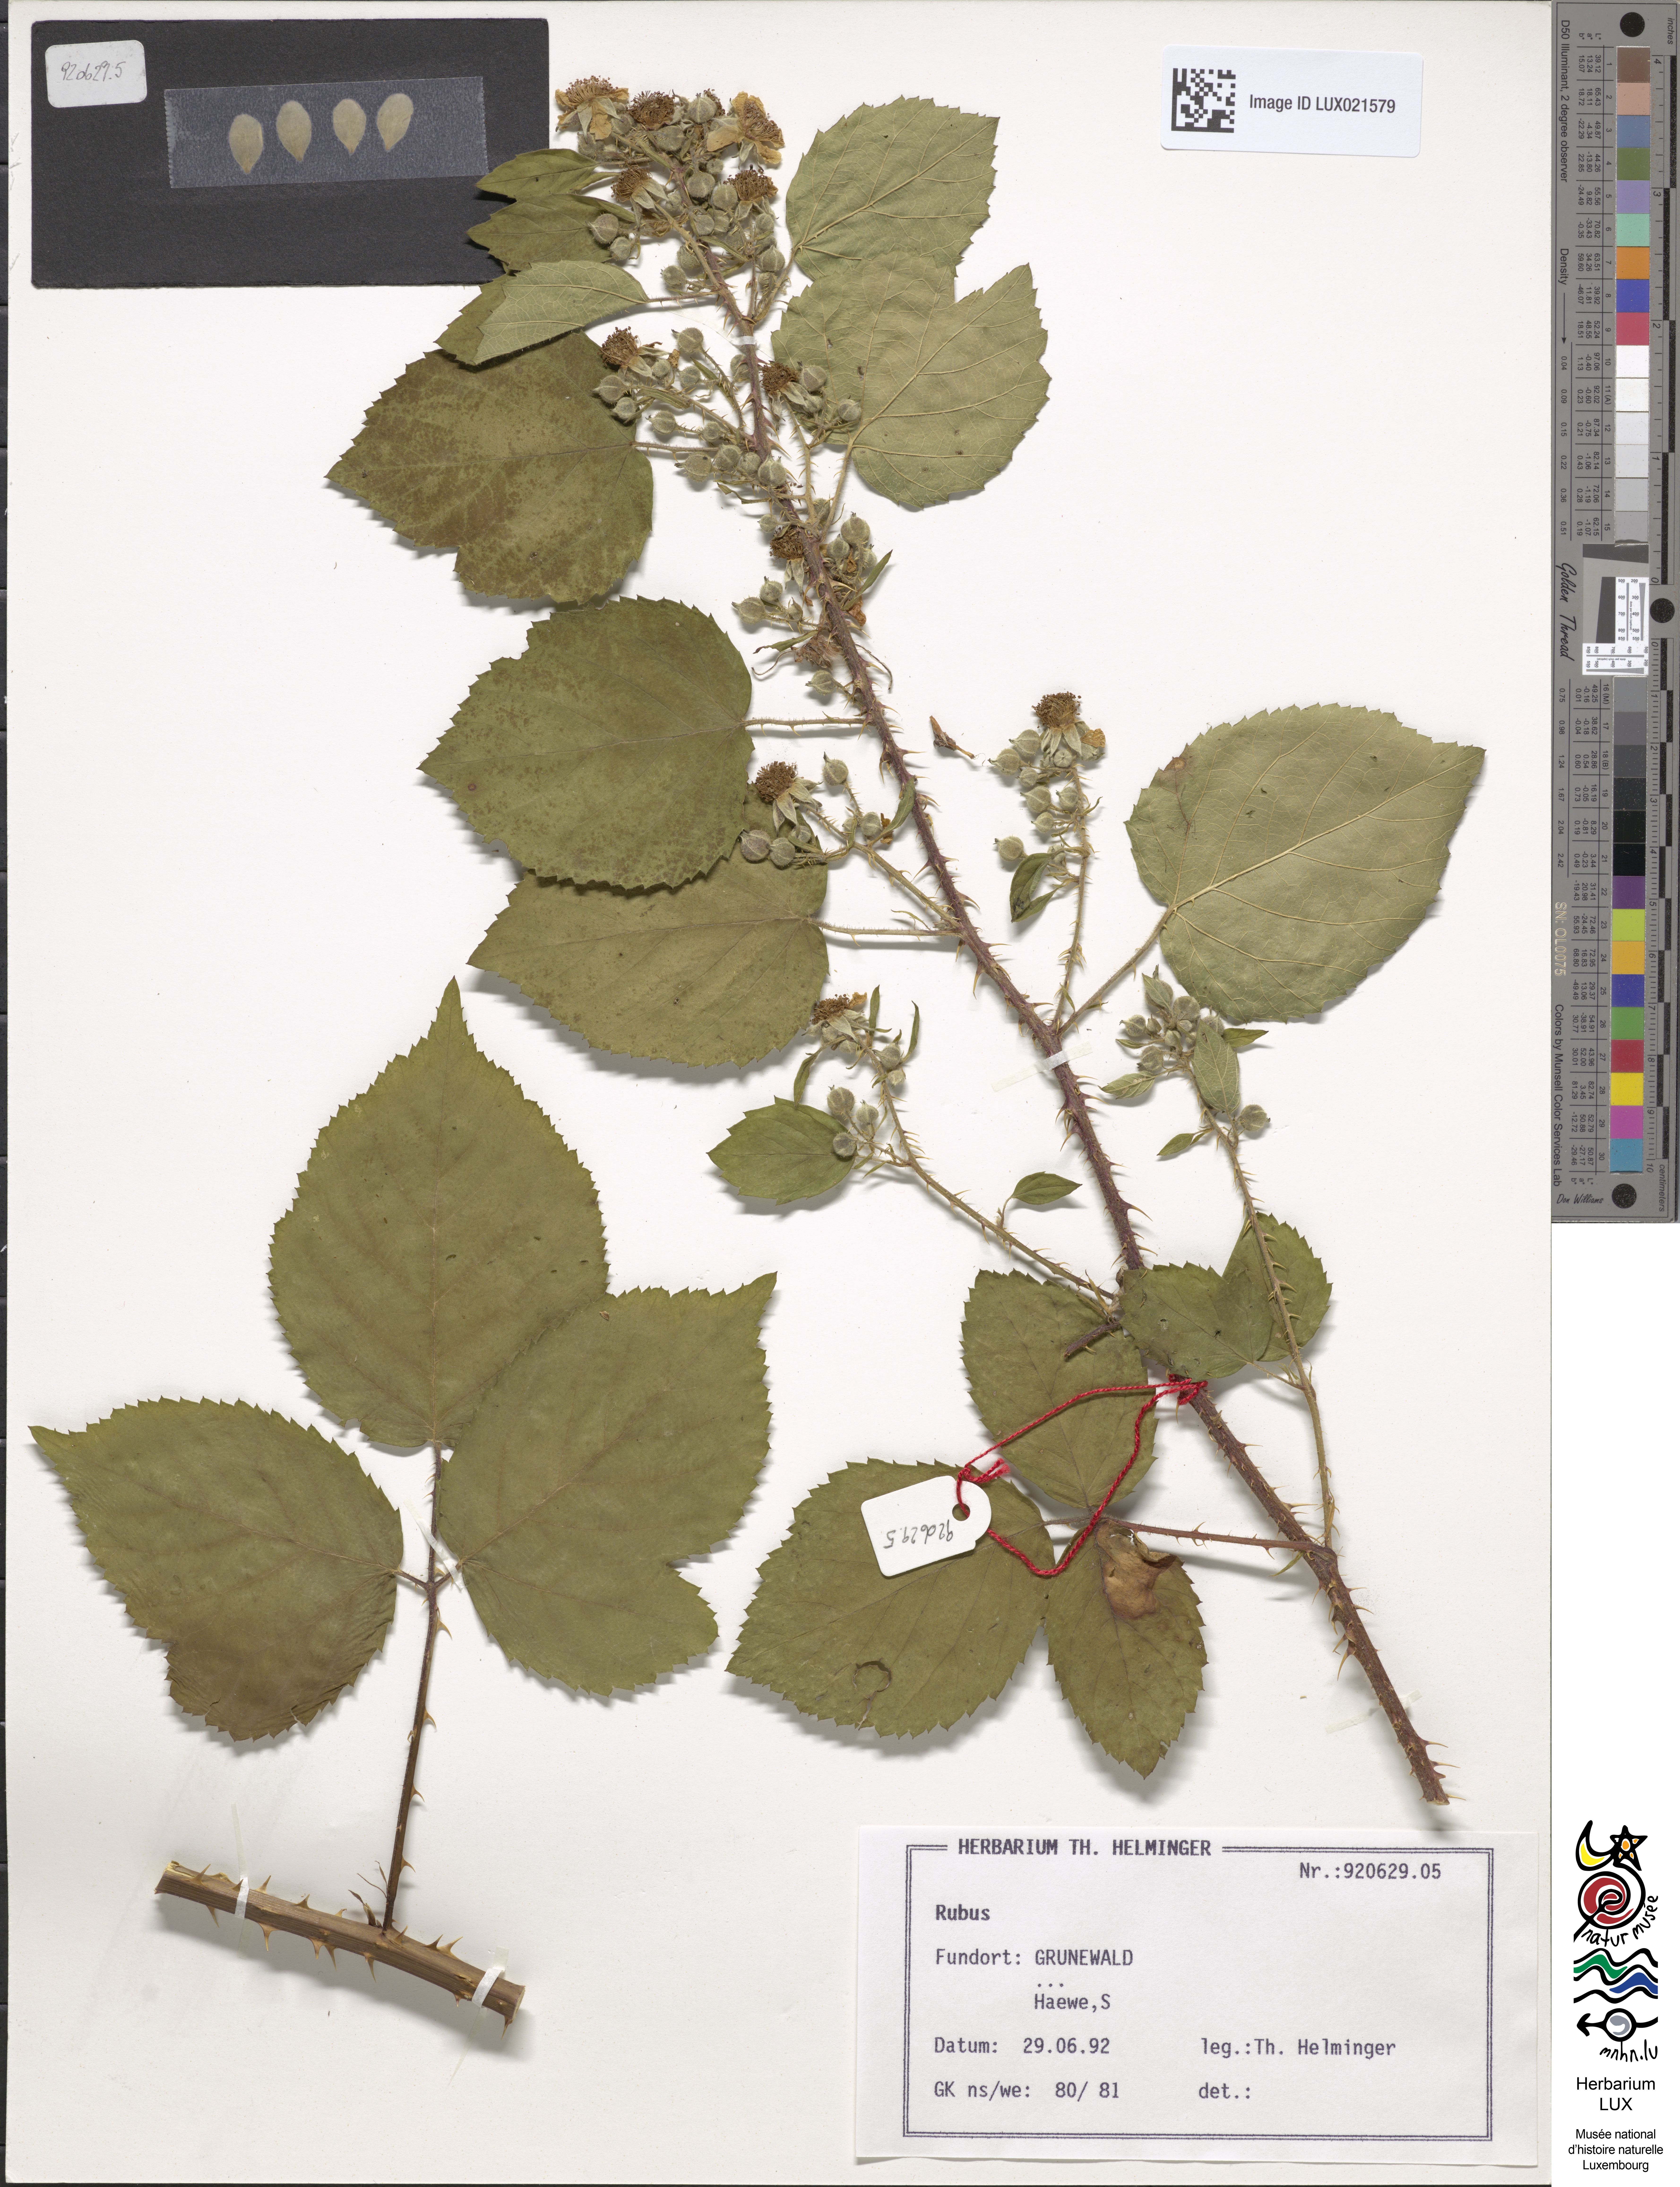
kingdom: Plantae
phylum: Tracheophyta
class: Magnoliopsida
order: Rosales
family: Rosaceae
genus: Rubus
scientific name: Rubus
